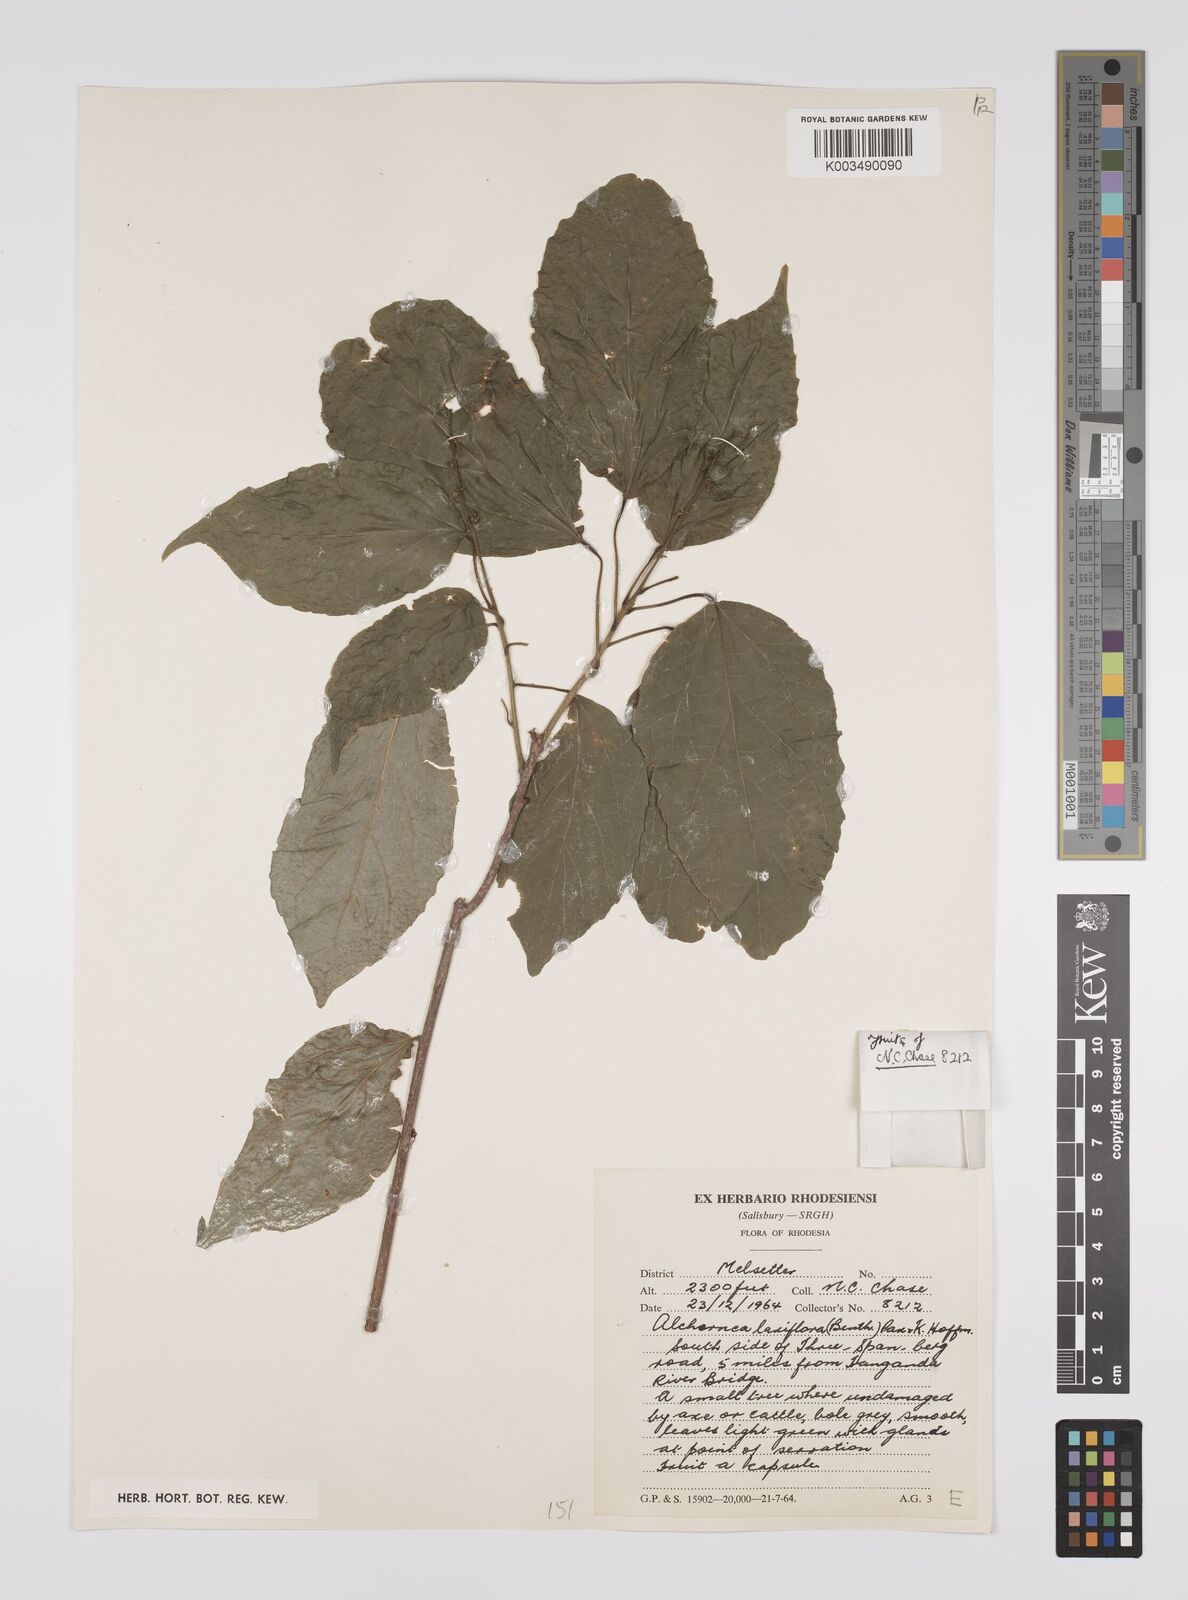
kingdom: Plantae
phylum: Tracheophyta
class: Magnoliopsida
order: Malpighiales
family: Euphorbiaceae
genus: Alchornea
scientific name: Alchornea laxiflora
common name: Lowveld bead-string
